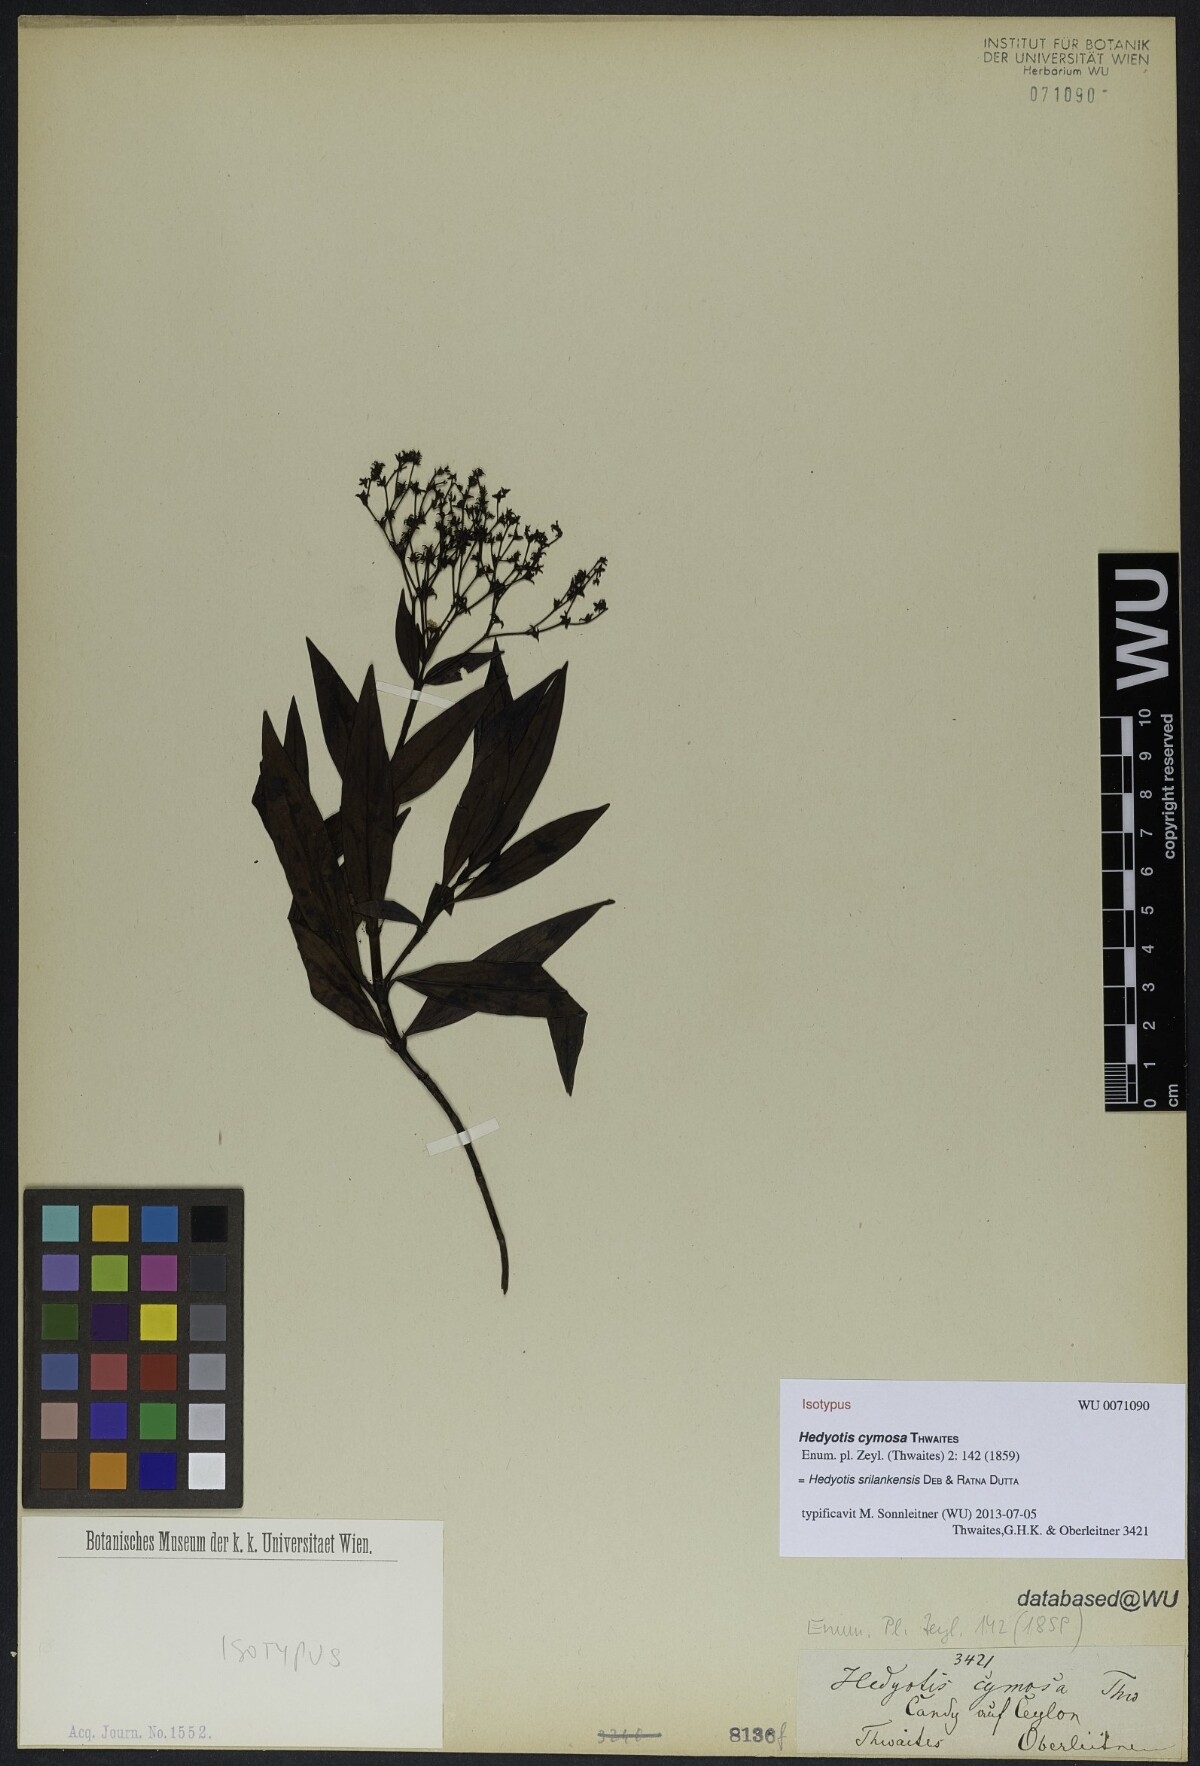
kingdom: Plantae
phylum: Tracheophyta
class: Magnoliopsida
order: Gentianales
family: Rubiaceae
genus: Hedyotis
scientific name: Hedyotis srilankensis
